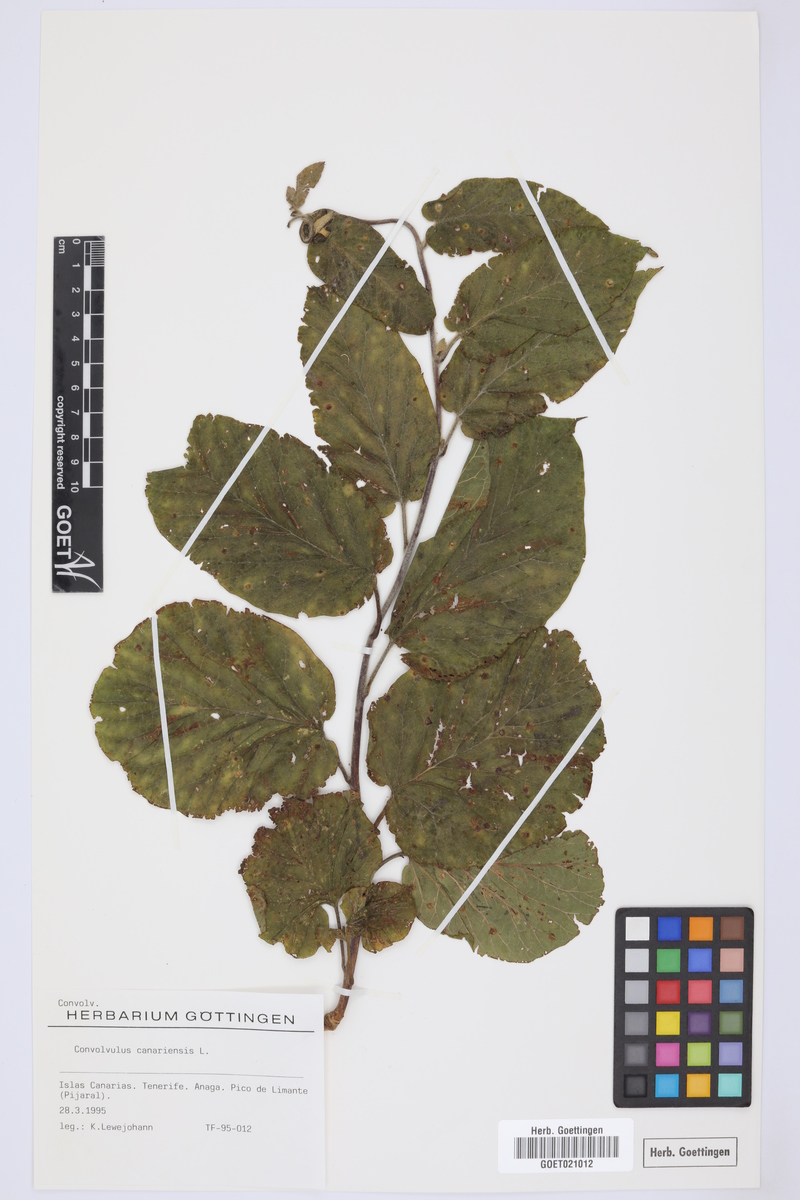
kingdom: Plantae
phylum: Tracheophyta
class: Magnoliopsida
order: Solanales
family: Convolvulaceae
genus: Convolvulus
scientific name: Convolvulus canariensis
